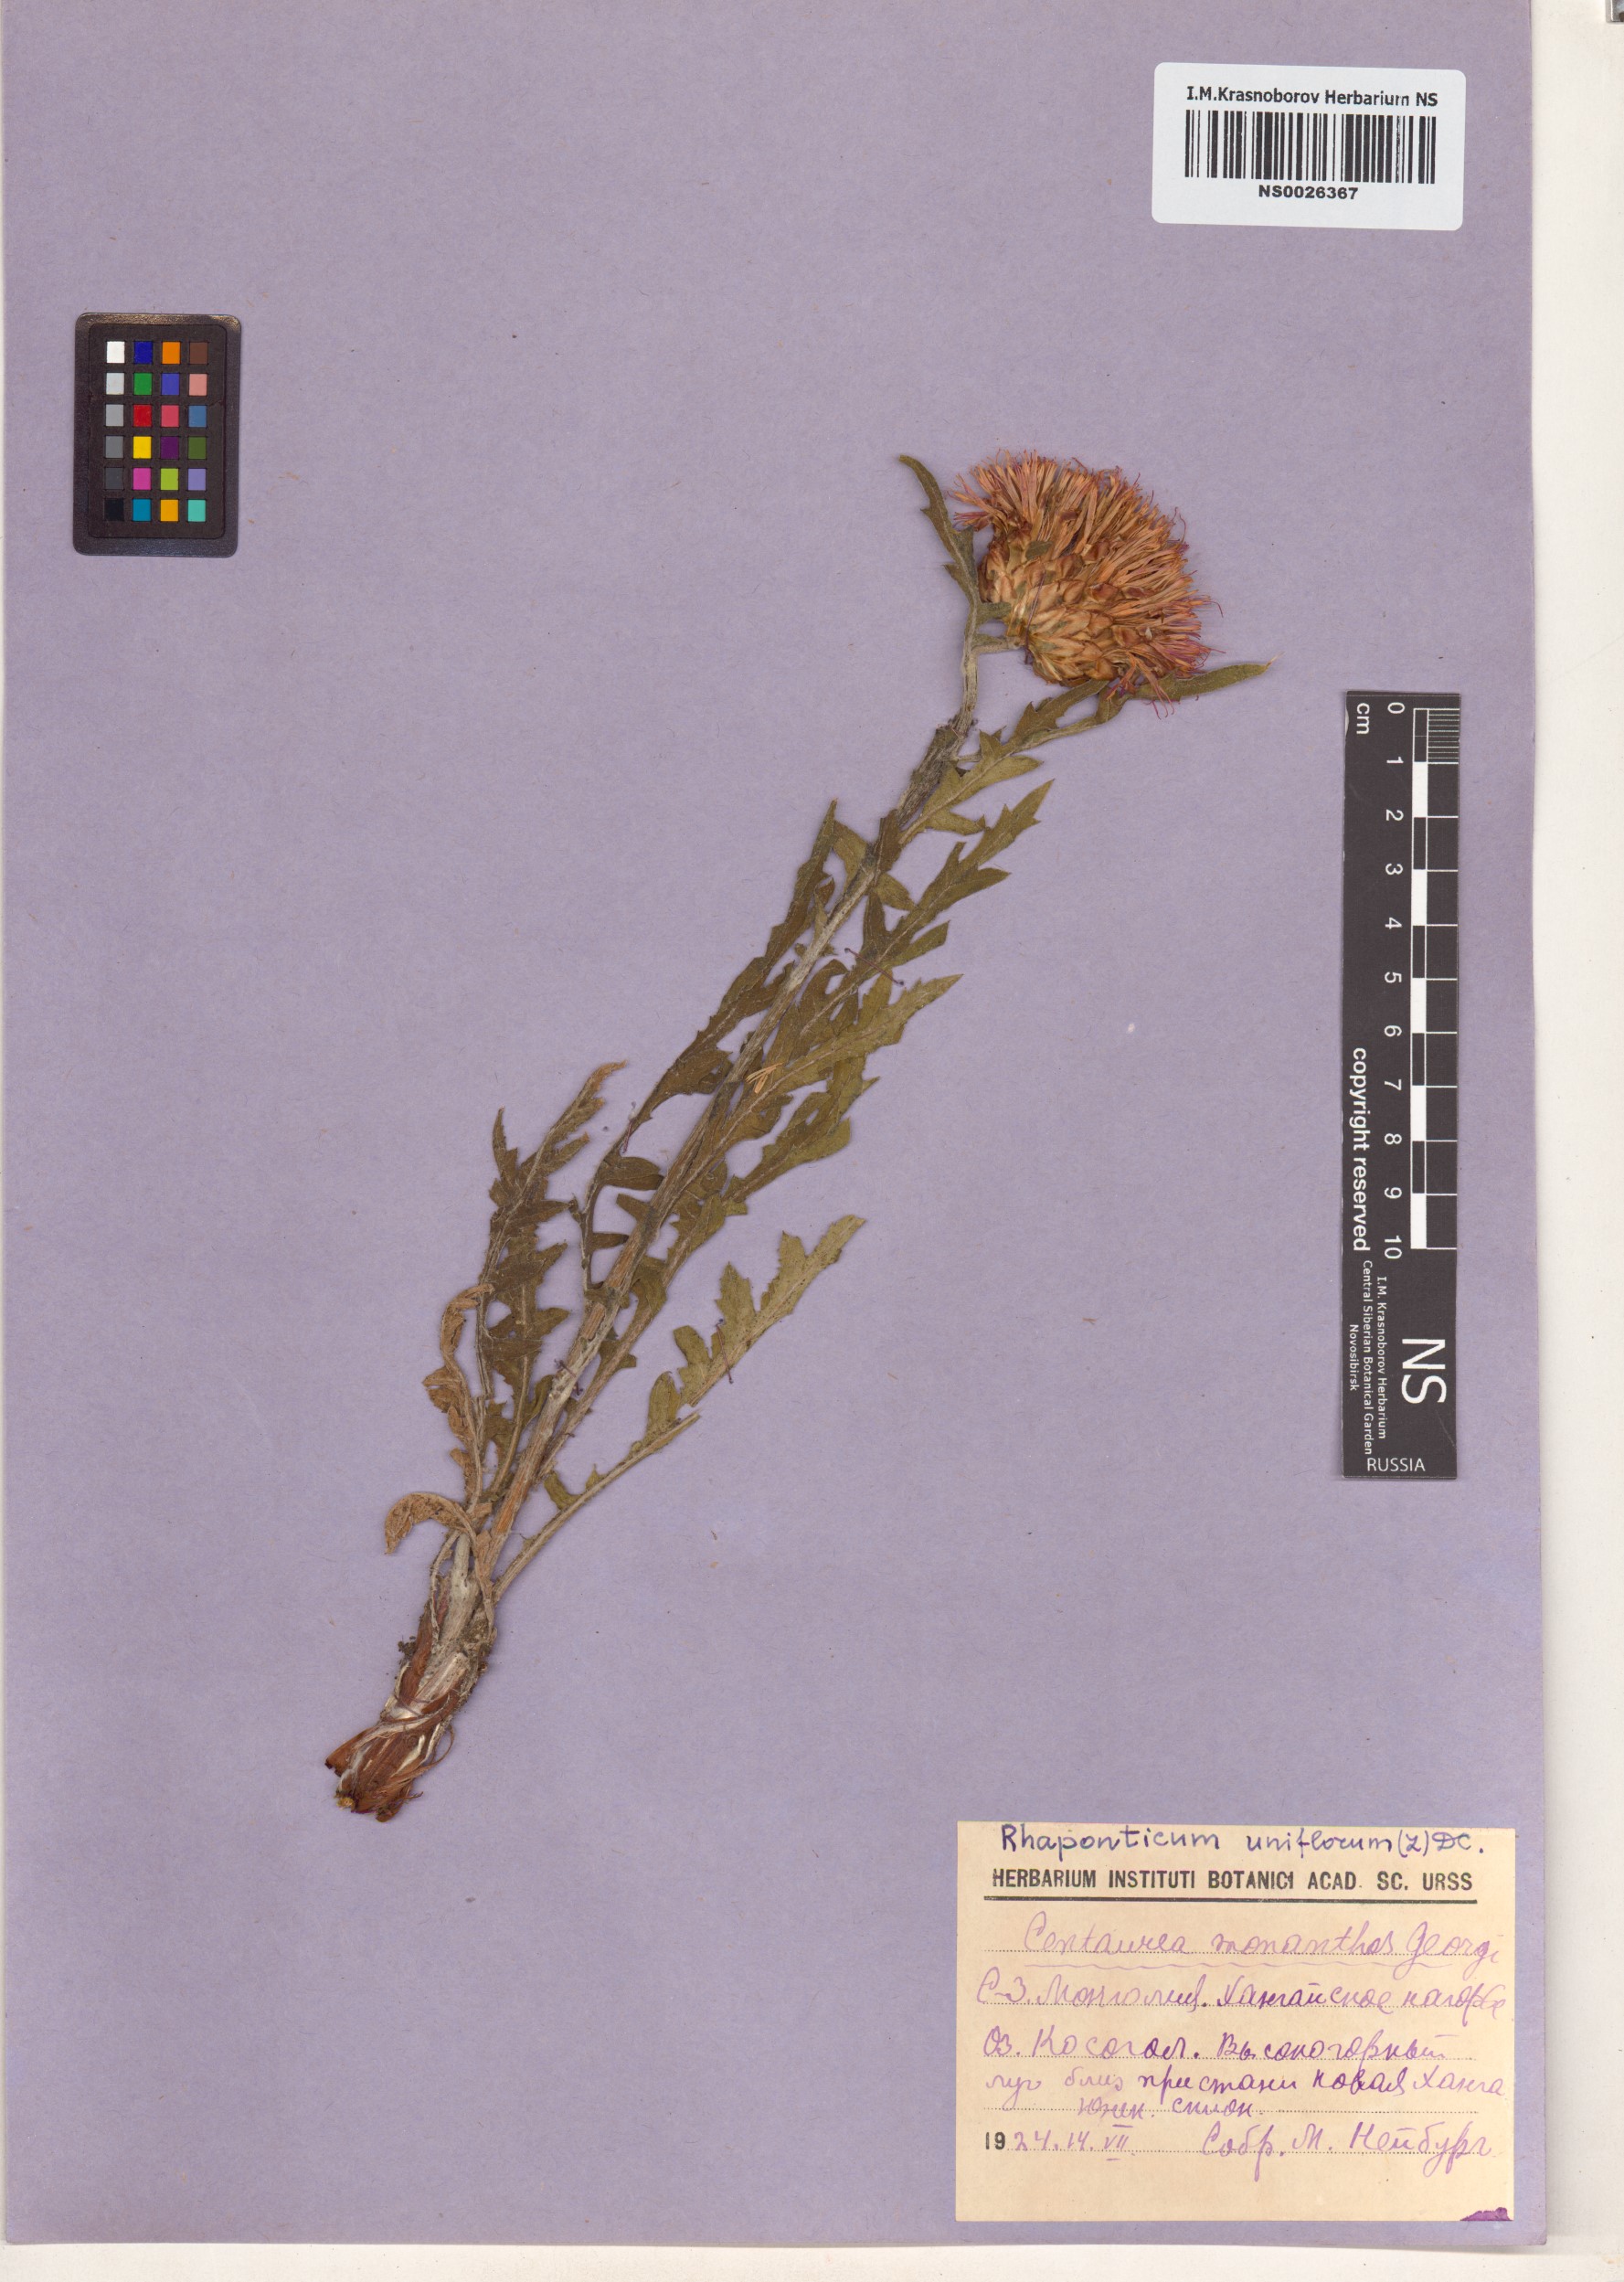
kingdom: Plantae
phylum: Tracheophyta
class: Magnoliopsida
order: Asterales
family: Asteraceae
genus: Leuzea
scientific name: Leuzea uniflora
